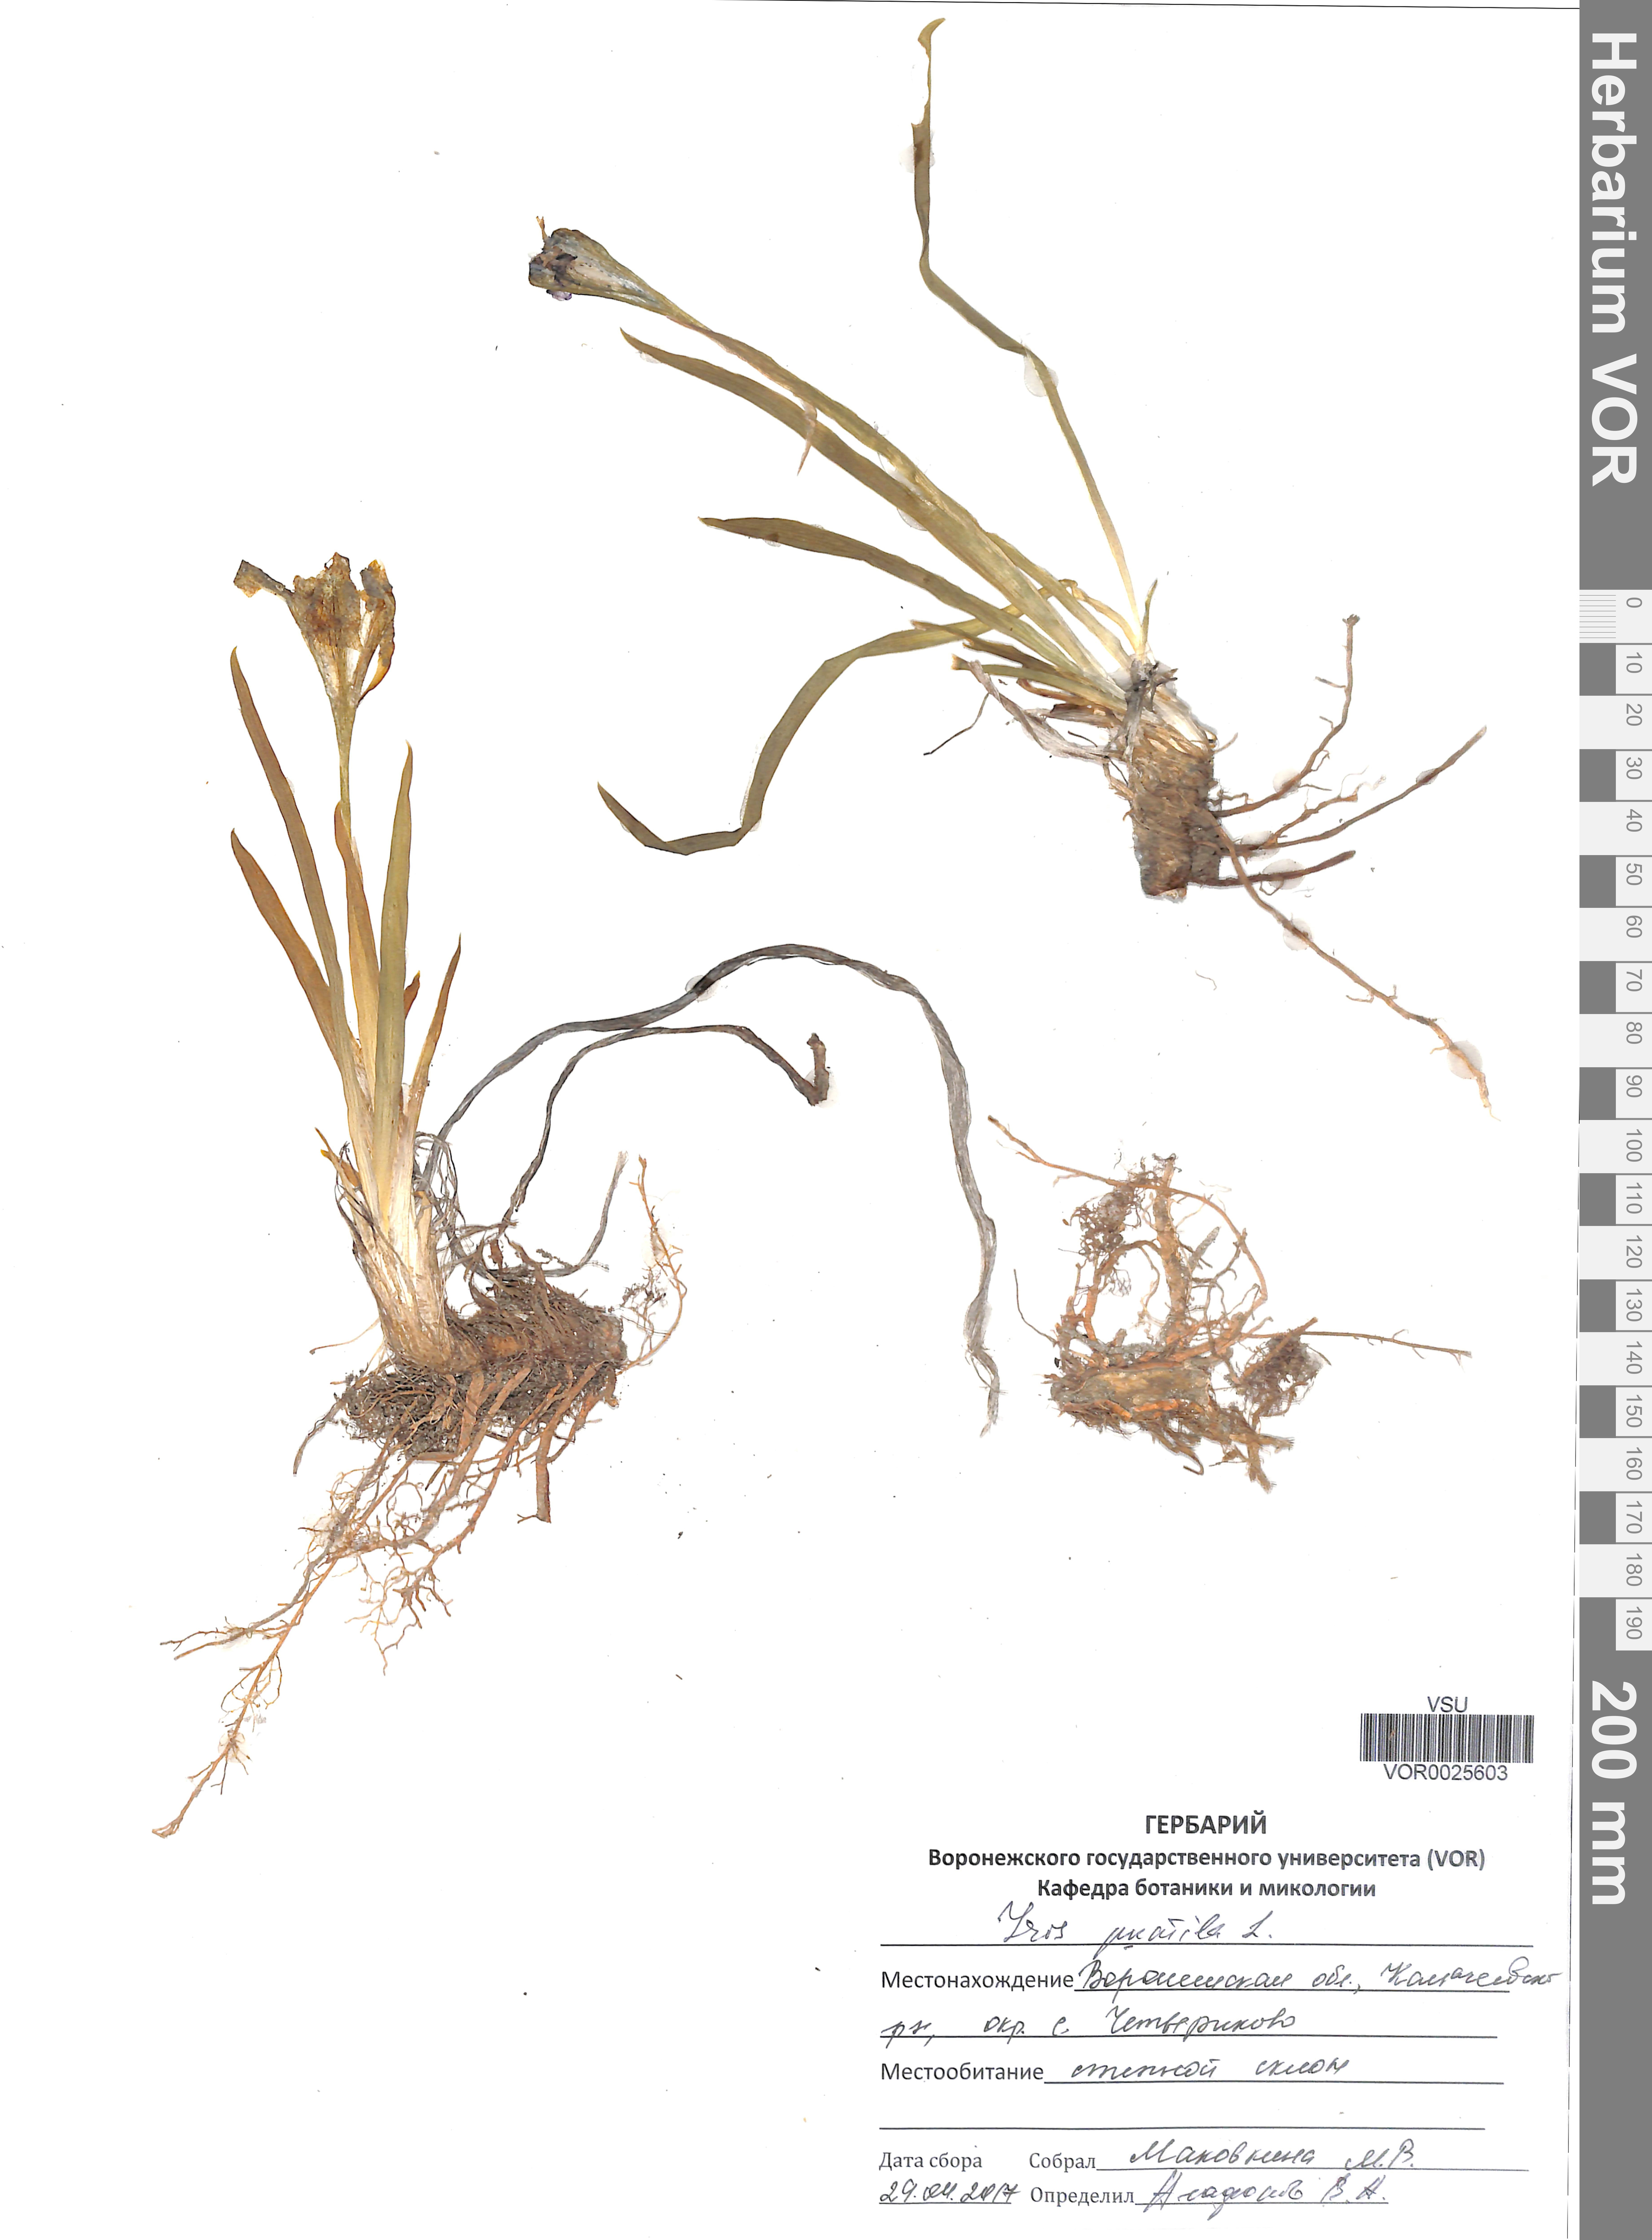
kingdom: Plantae
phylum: Tracheophyta
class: Liliopsida
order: Asparagales
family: Iridaceae
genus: Iris
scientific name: Iris pumila
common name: Dwarf iris
